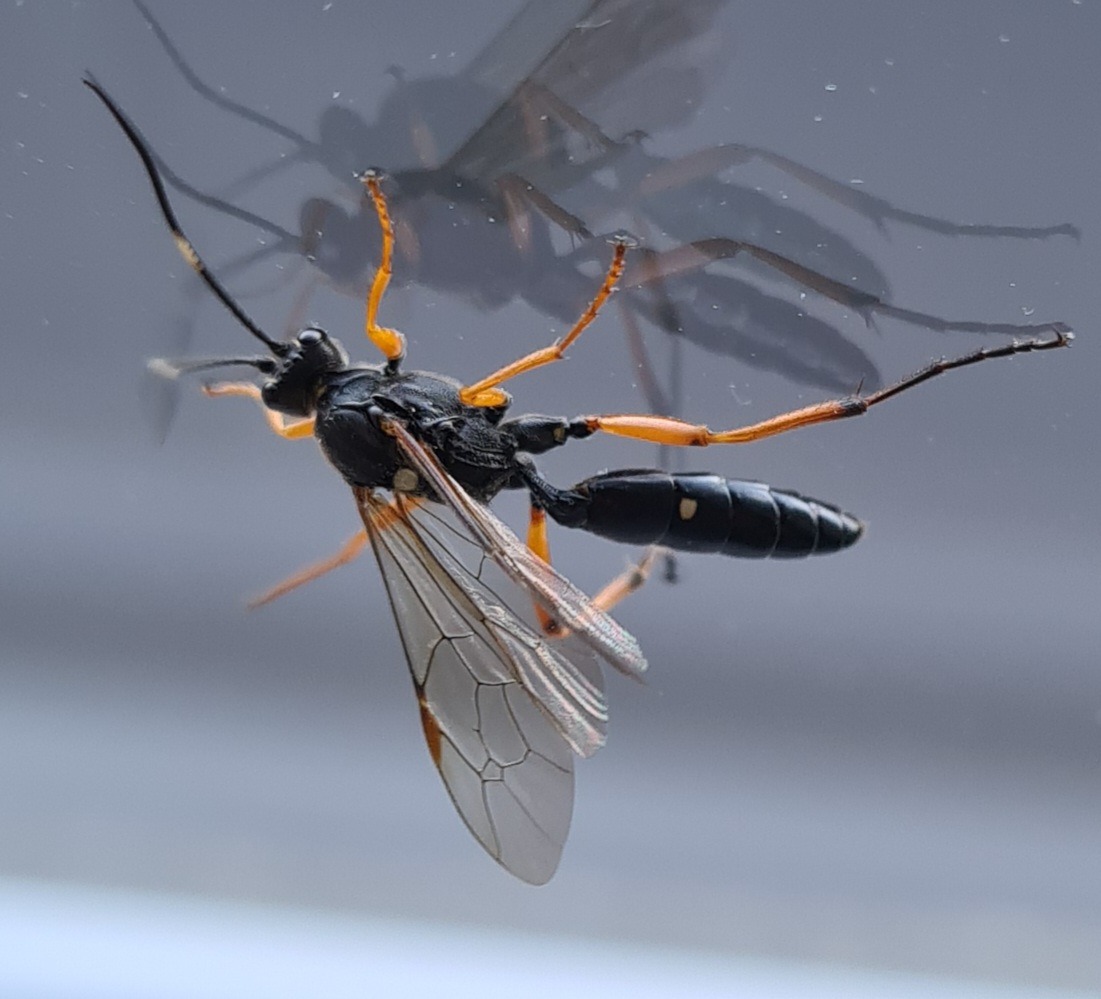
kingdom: Animalia
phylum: Arthropoda
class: Insecta
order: Hymenoptera
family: Ichneumonidae
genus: Diphyus
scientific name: Diphyus quadripunctorius
